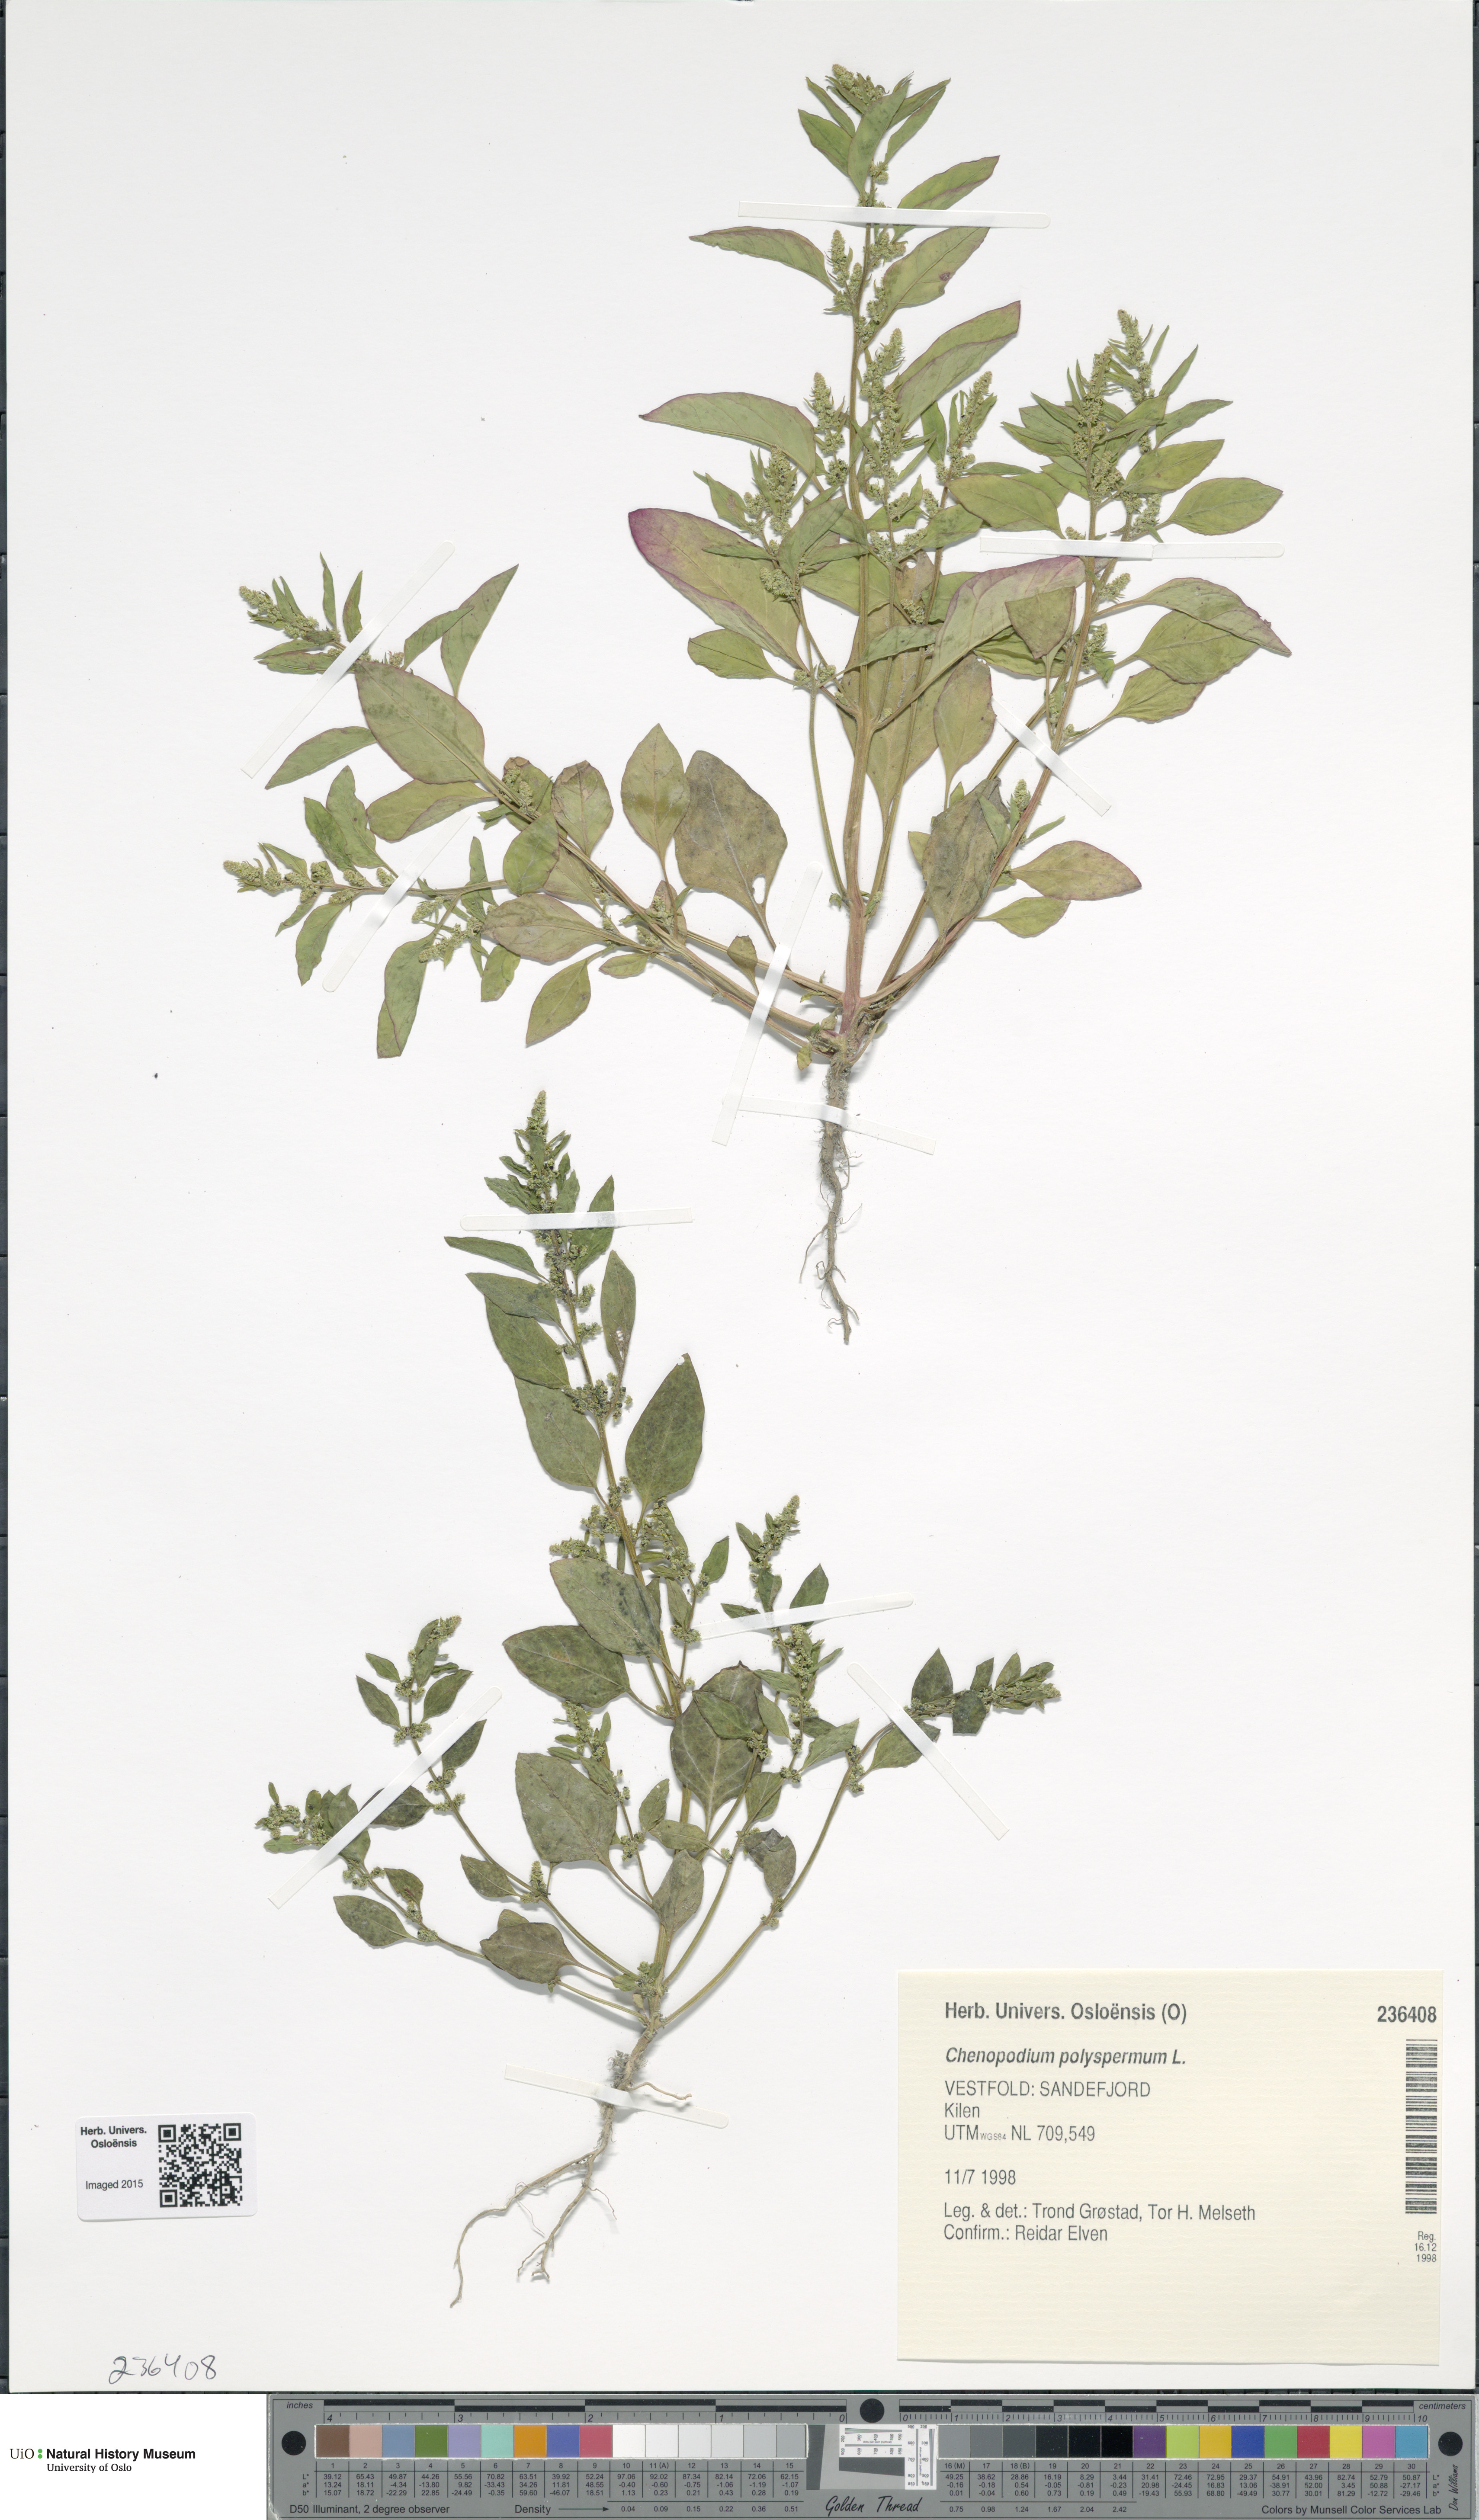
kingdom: Plantae
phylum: Tracheophyta
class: Magnoliopsida
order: Caryophyllales
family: Amaranthaceae
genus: Lipandra
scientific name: Lipandra polysperma
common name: Many-seed goosefoot
